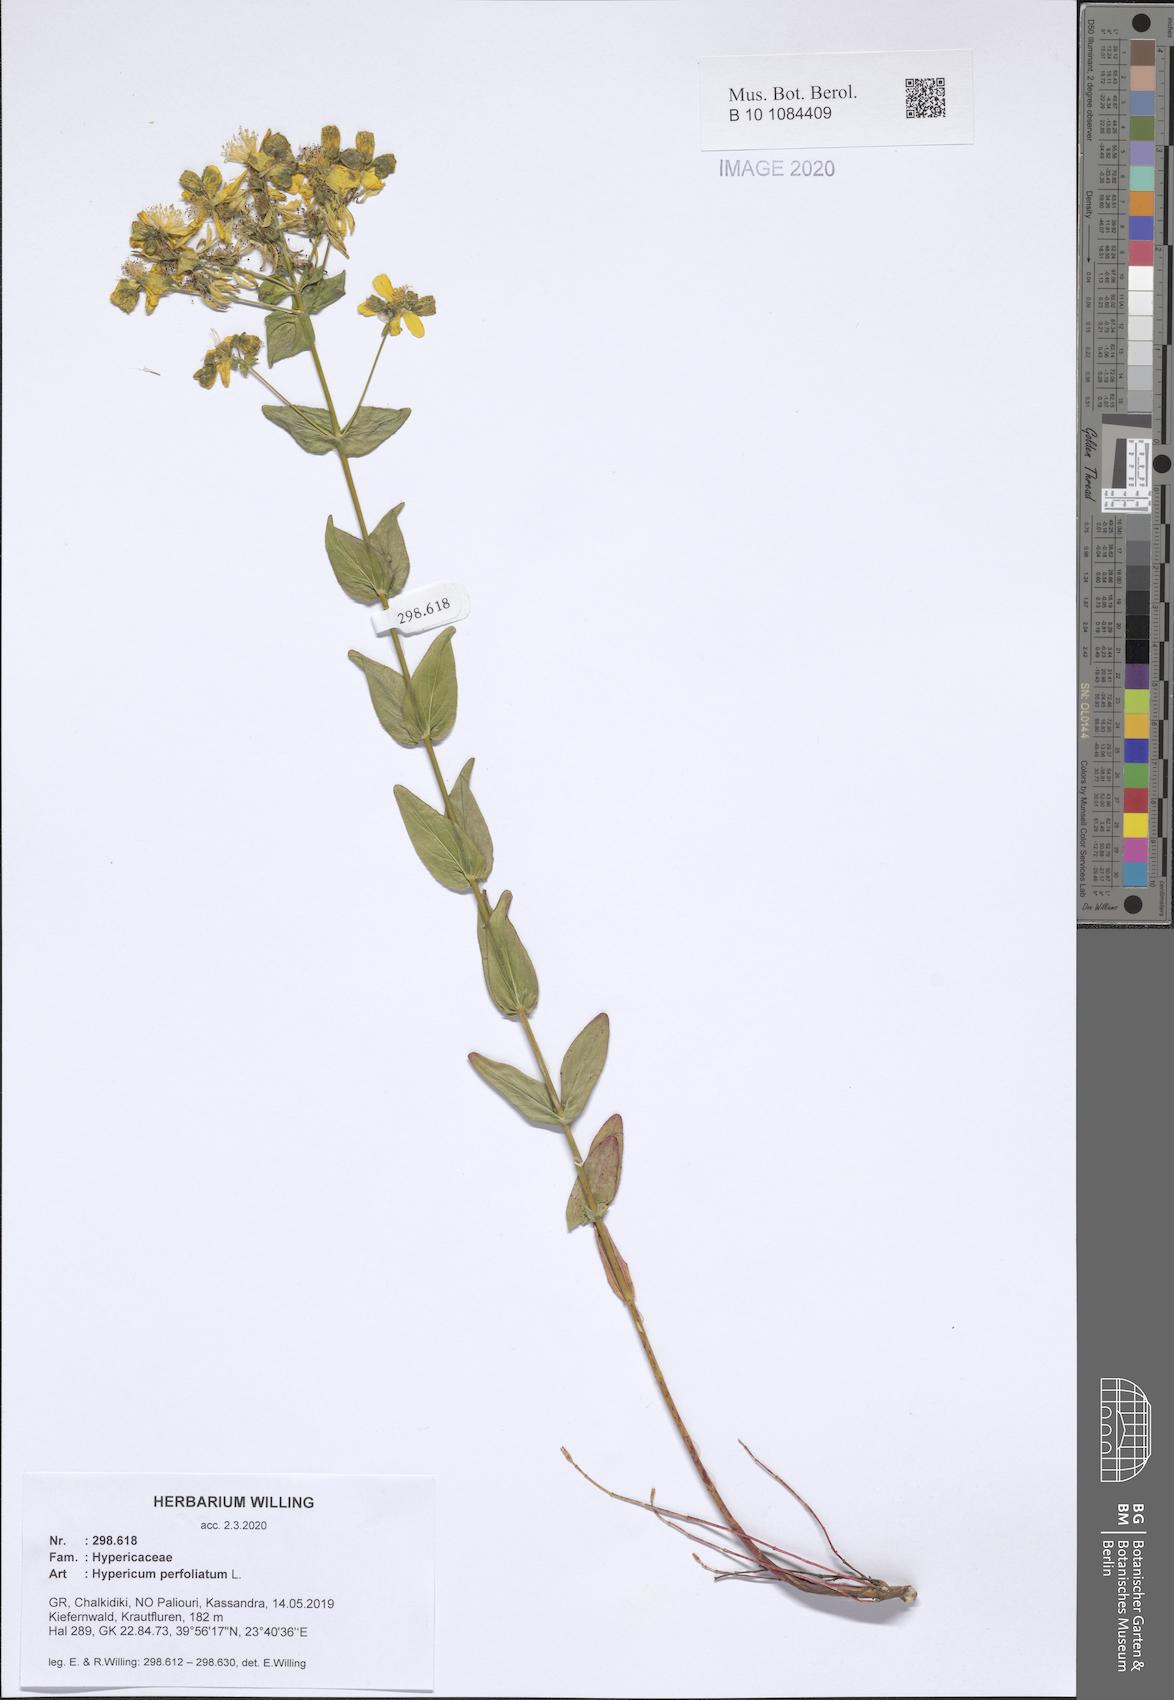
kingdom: Plantae
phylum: Tracheophyta
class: Magnoliopsida
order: Malpighiales
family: Hypericaceae
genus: Hypericum
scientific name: Hypericum perfoliatum
